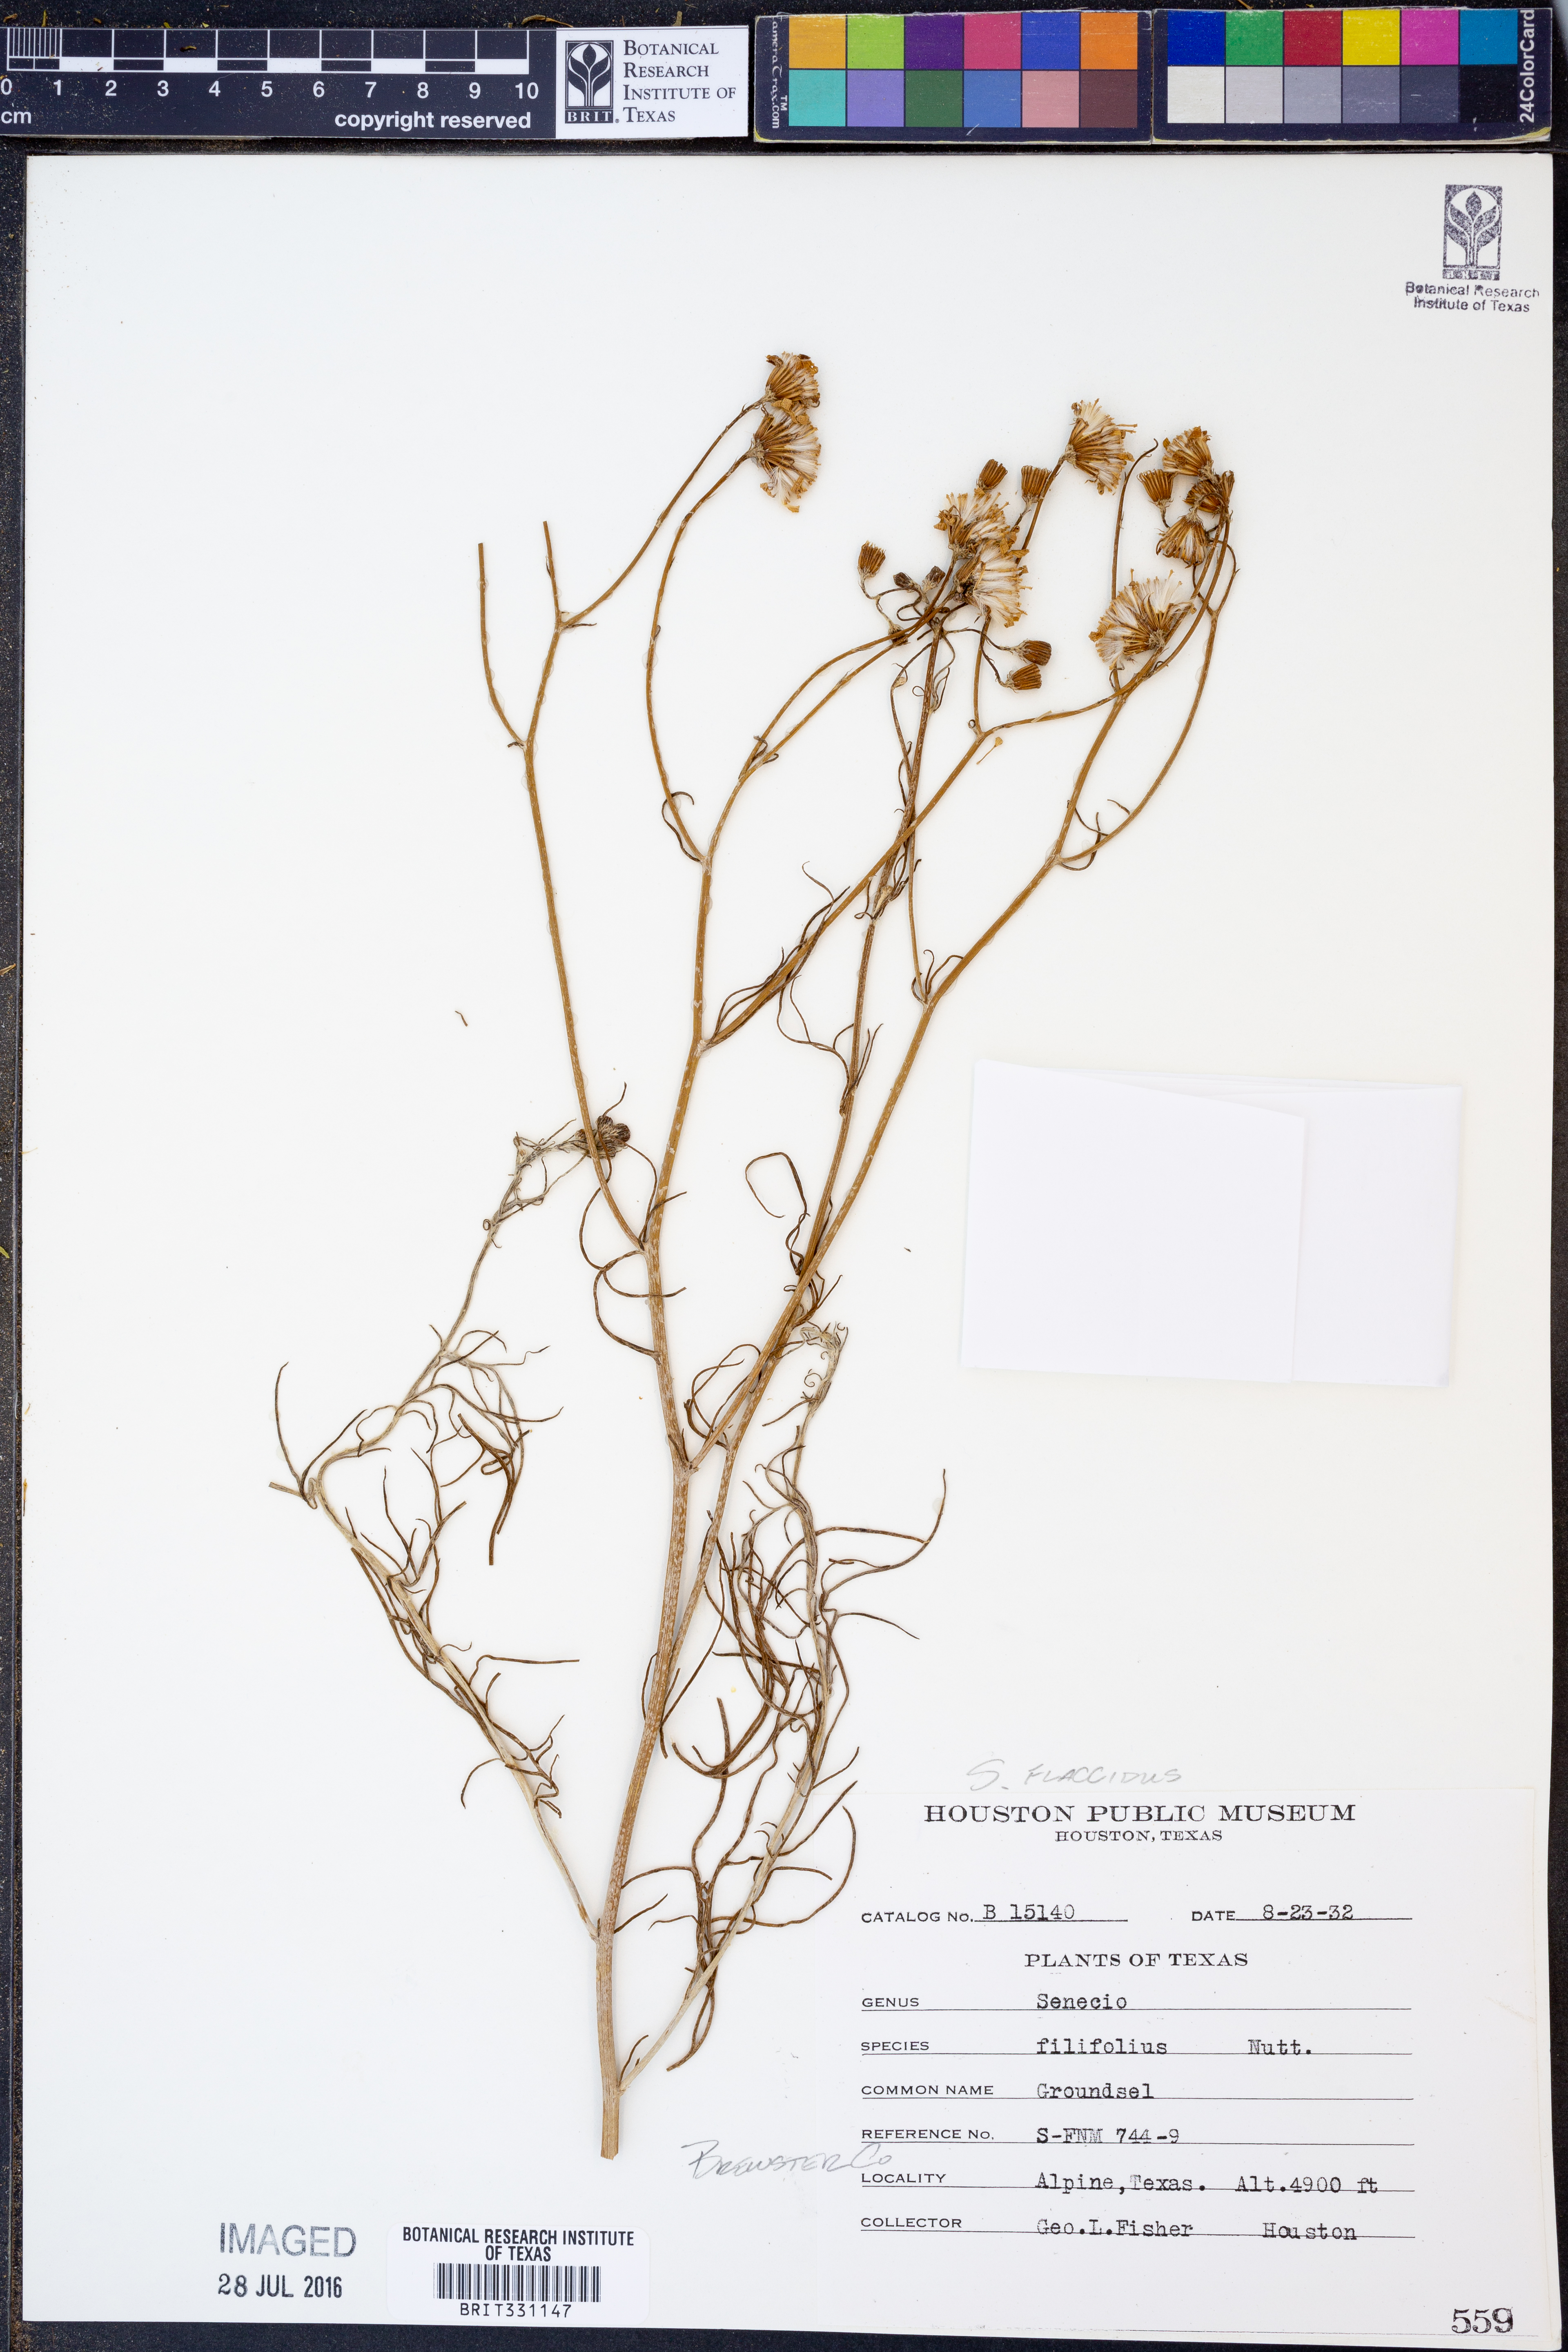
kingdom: Plantae
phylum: Tracheophyta
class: Magnoliopsida
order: Asterales
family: Asteraceae
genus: Senecio
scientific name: Senecio flaccidus
